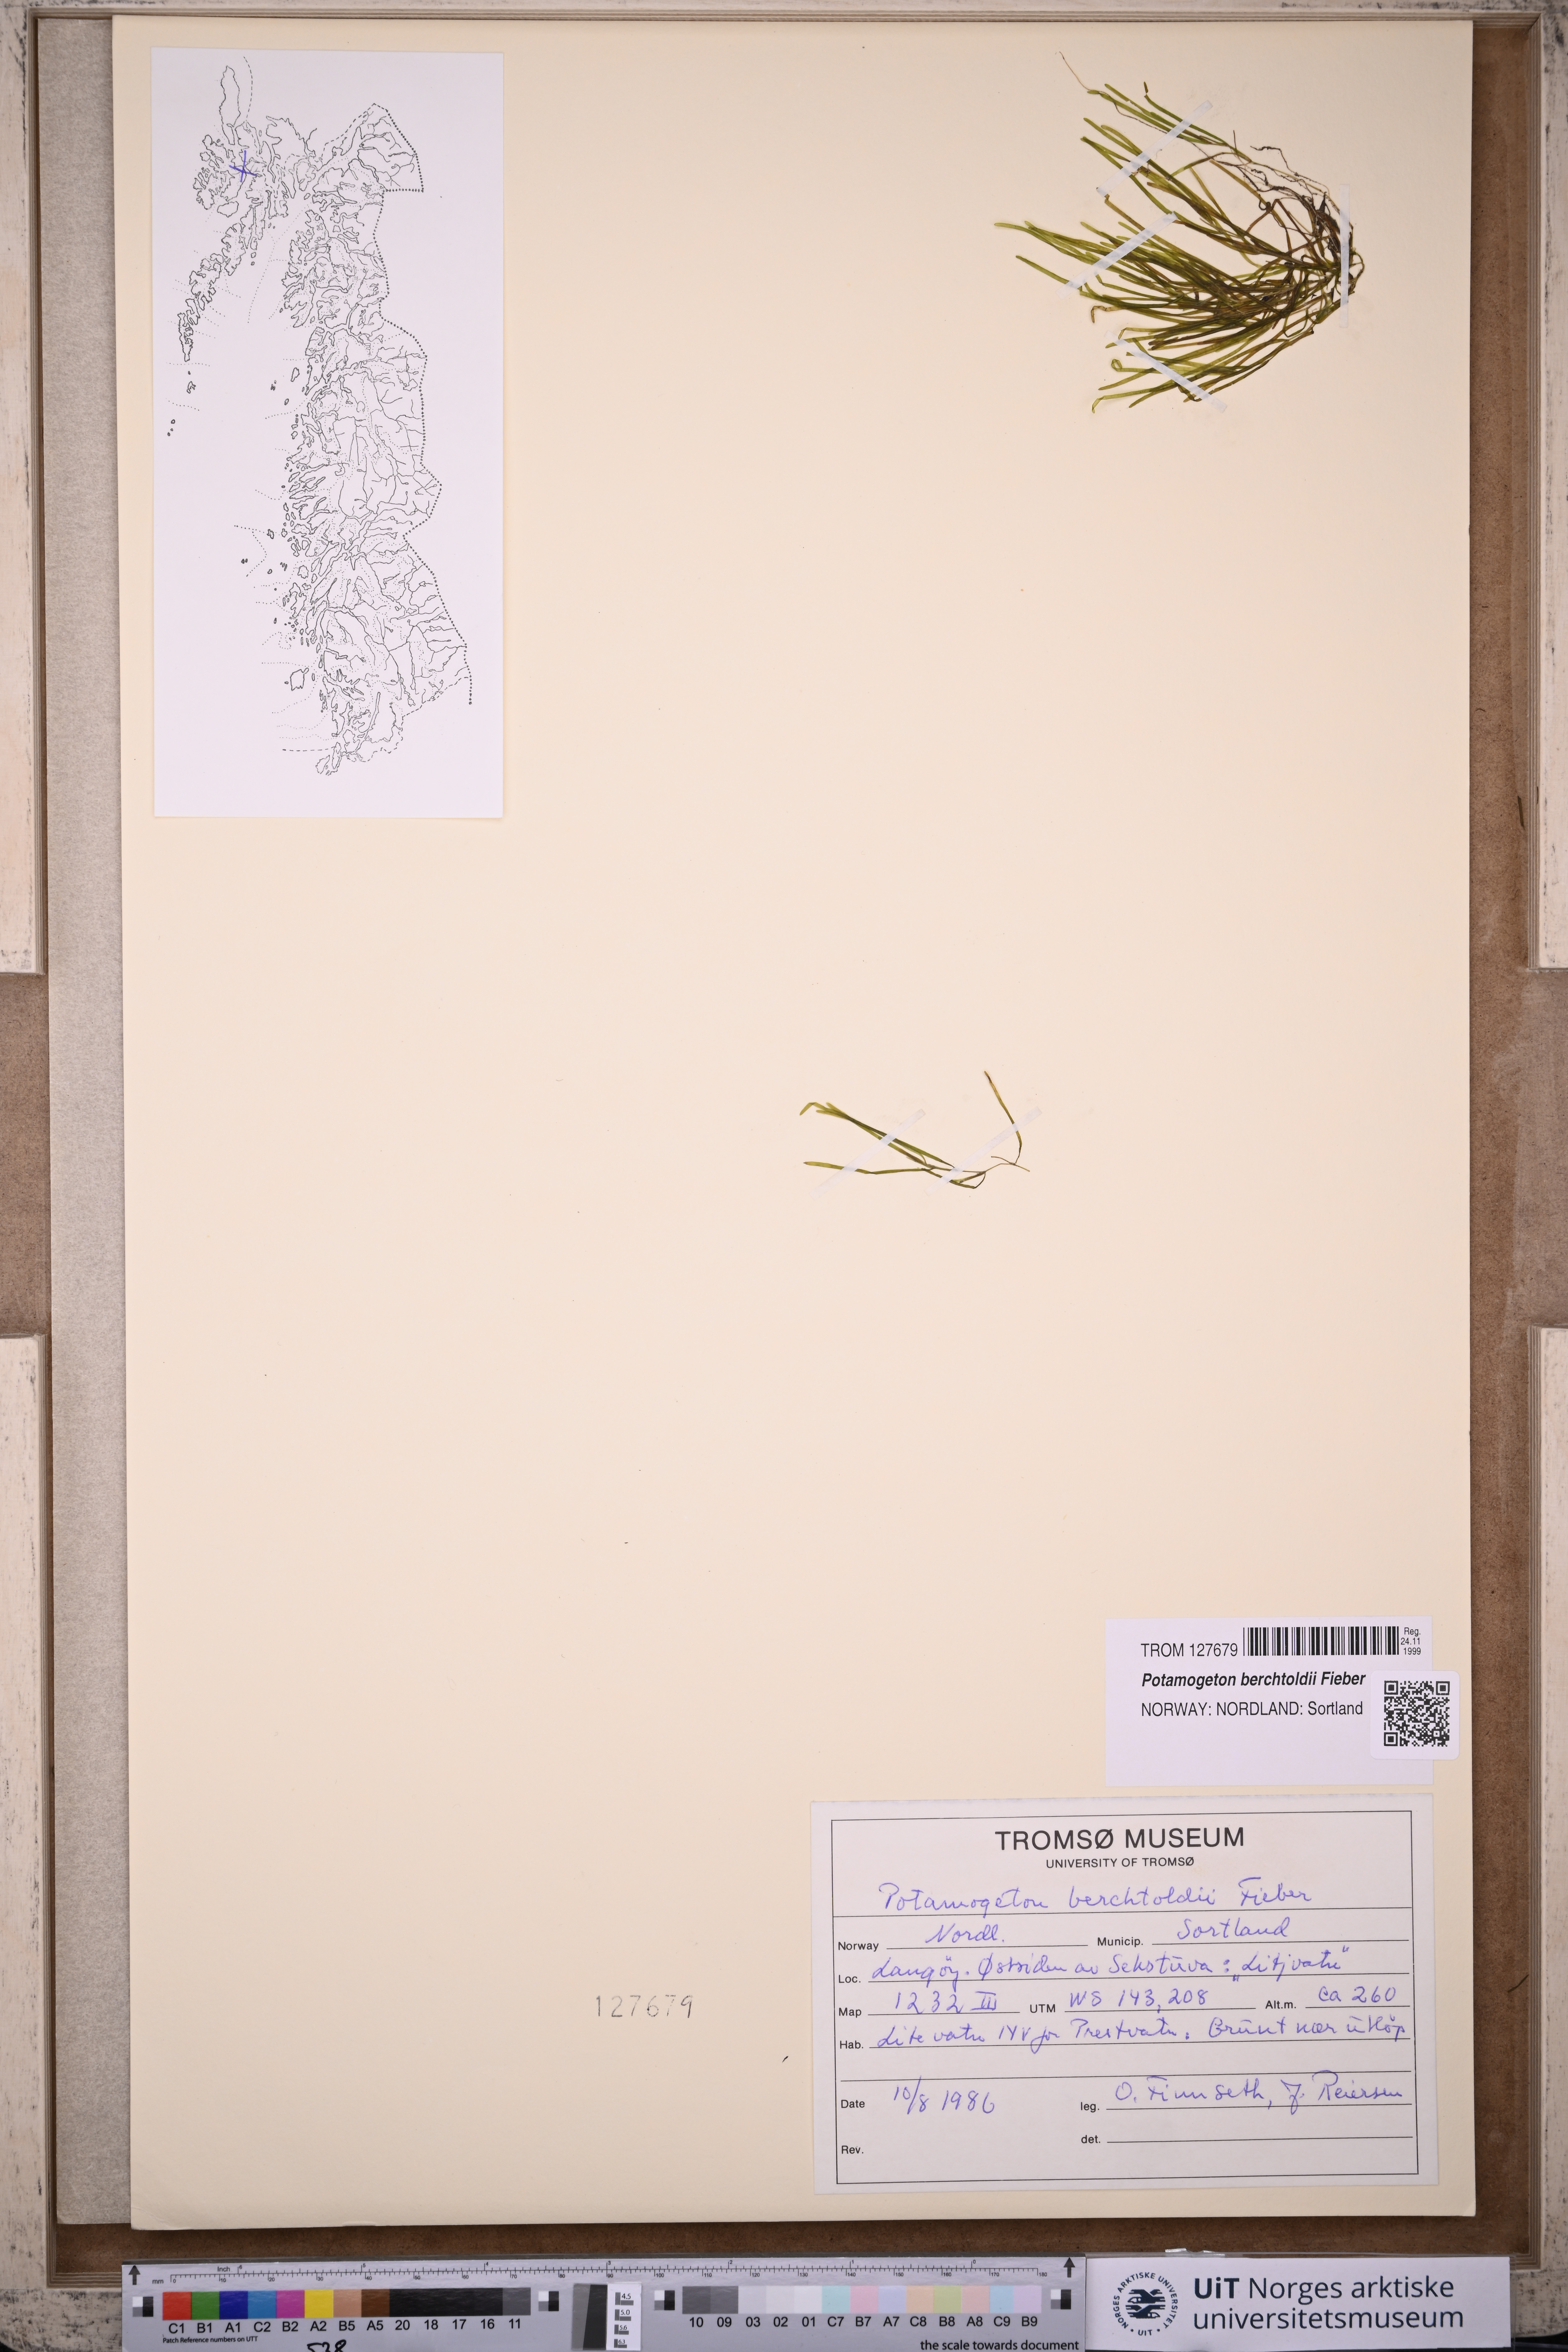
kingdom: Plantae
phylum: Tracheophyta
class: Liliopsida
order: Alismatales
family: Potamogetonaceae
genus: Potamogeton
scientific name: Potamogeton berchtoldii
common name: Small pondweed
